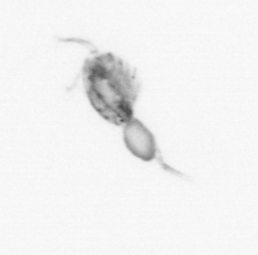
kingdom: Animalia
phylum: Arthropoda
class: Copepoda
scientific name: Copepoda
